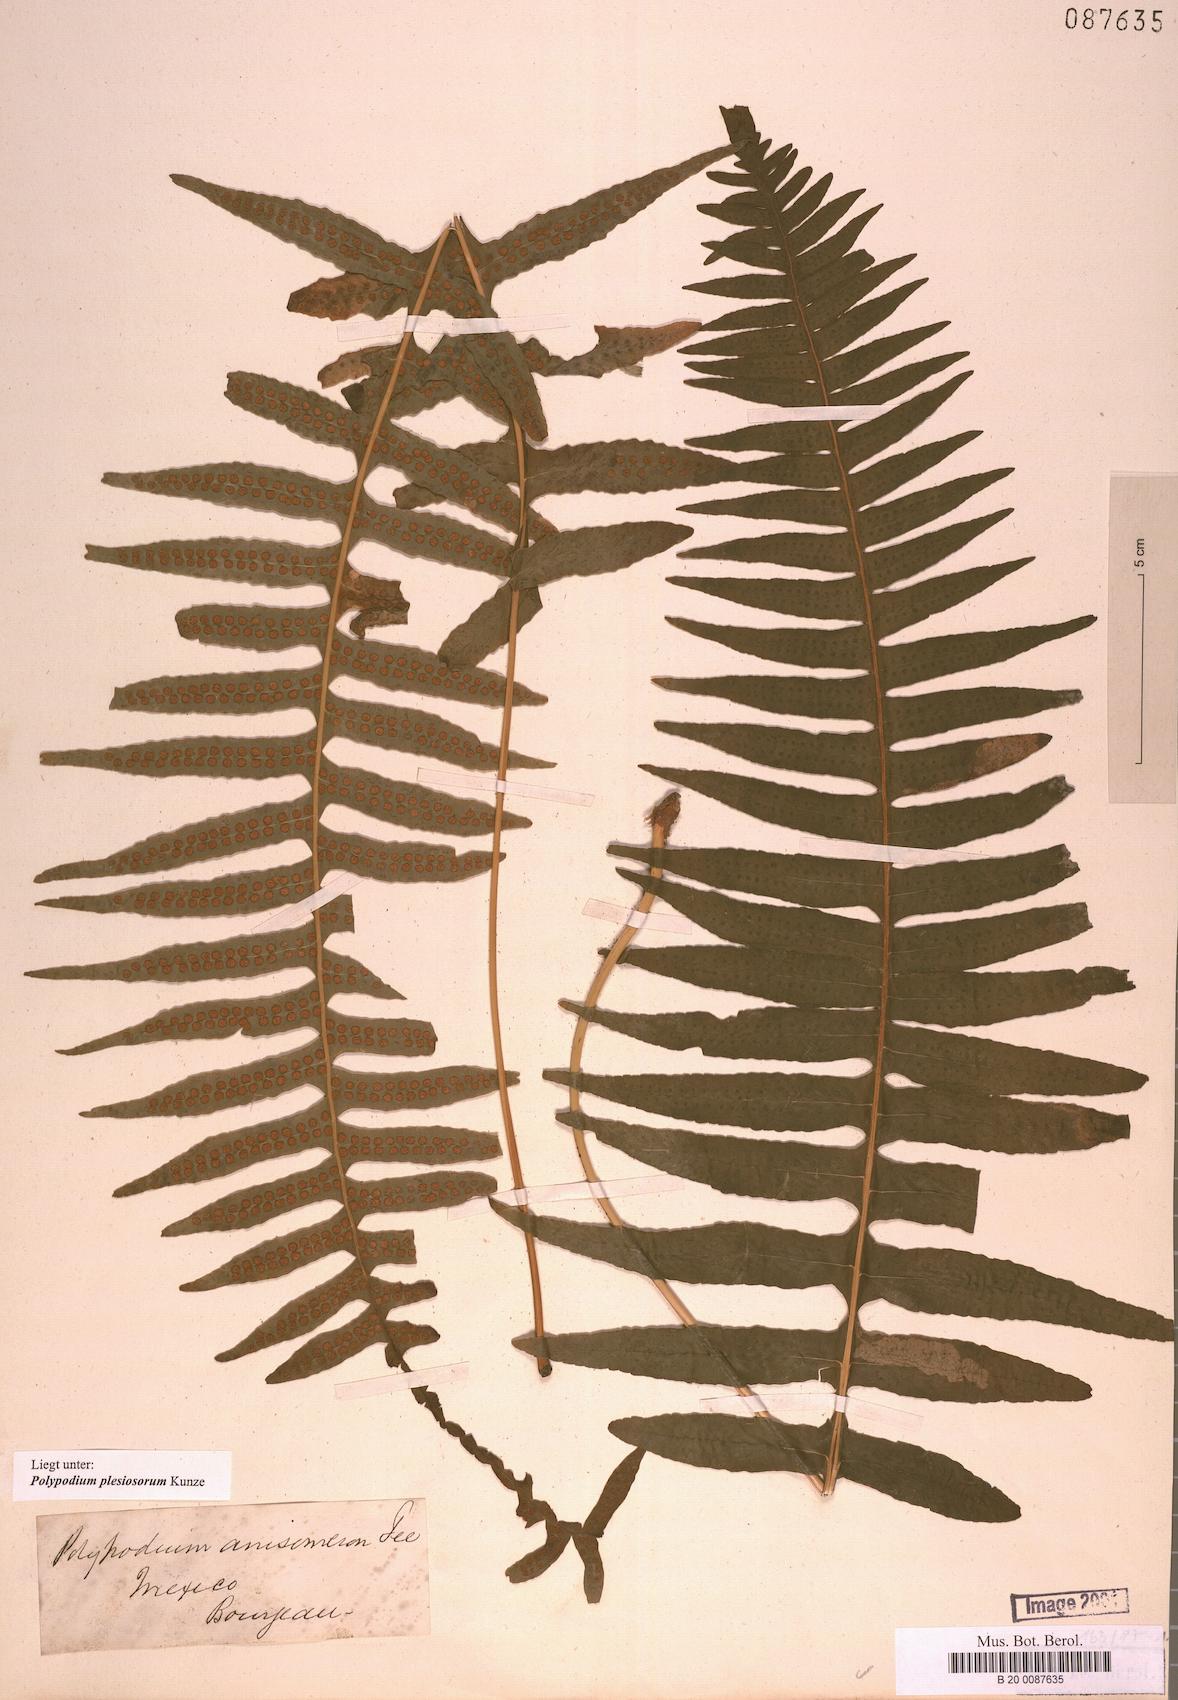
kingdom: Plantae
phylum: Tracheophyta
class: Polypodiopsida
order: Polypodiales
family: Polypodiaceae
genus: Polypodium
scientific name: Polypodium plesiosorum
